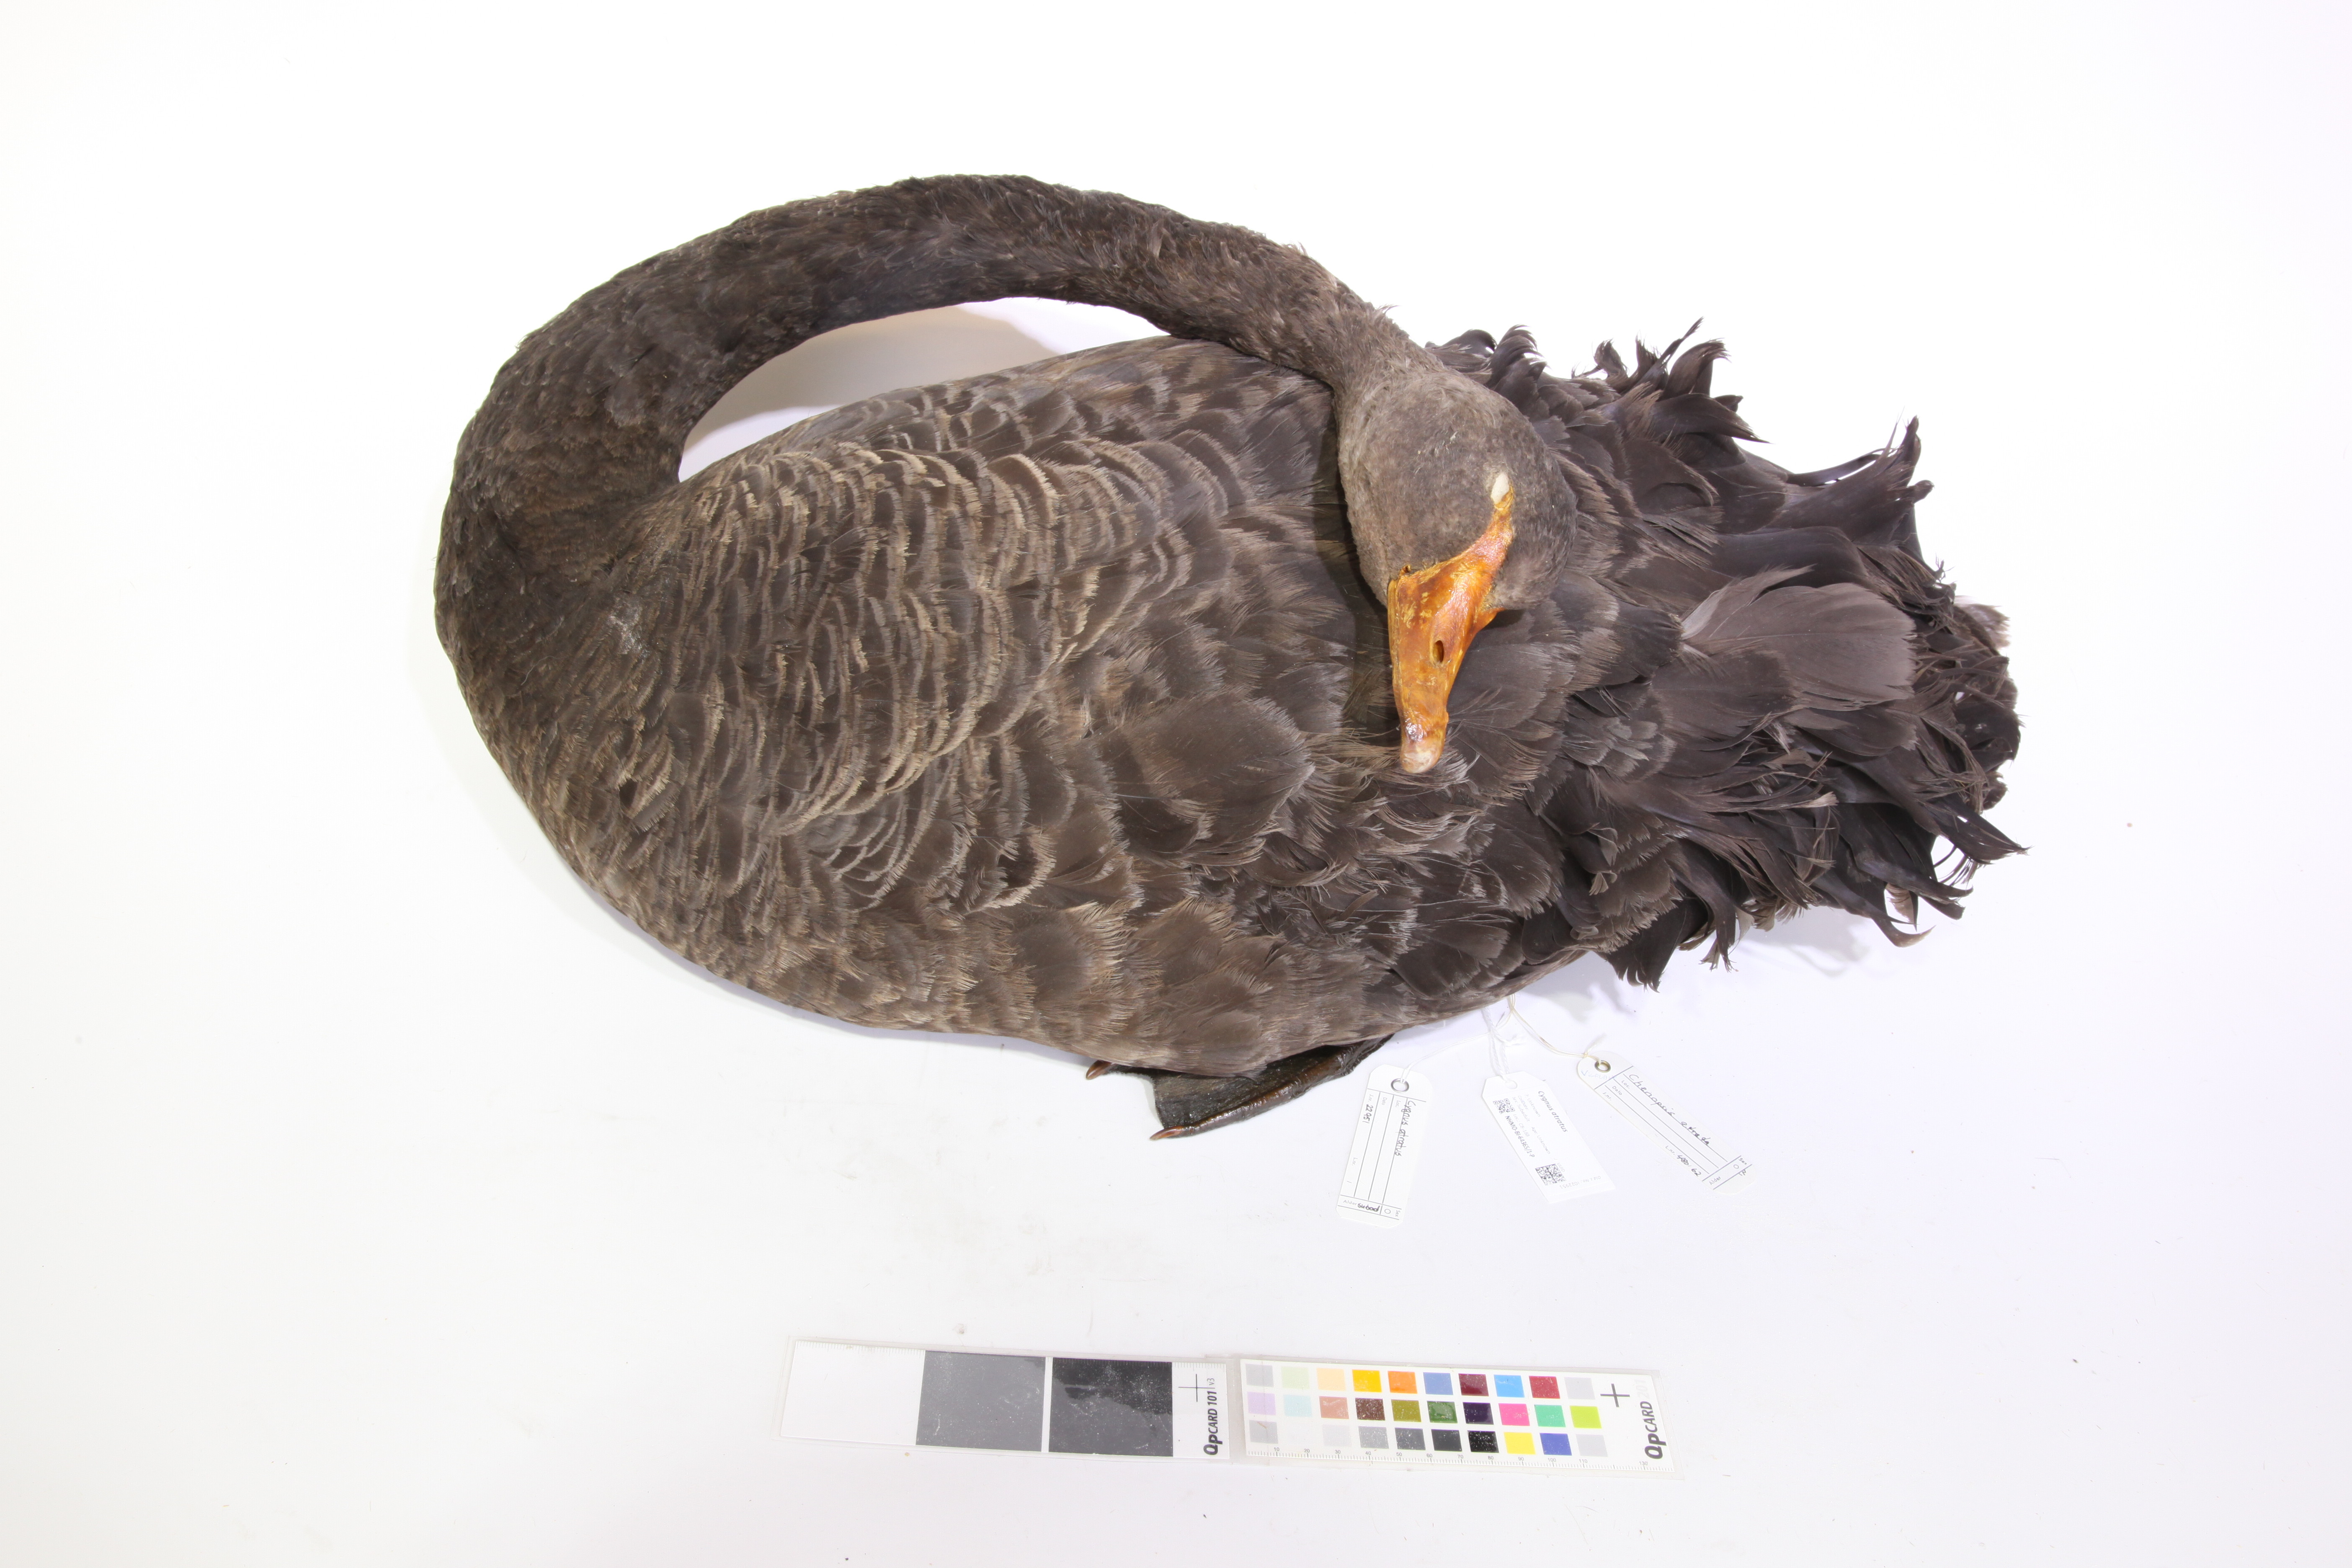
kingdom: Animalia
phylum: Chordata
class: Aves
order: Anseriformes
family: Anatidae
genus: Cygnus
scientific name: Cygnus atratus
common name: Black swan
